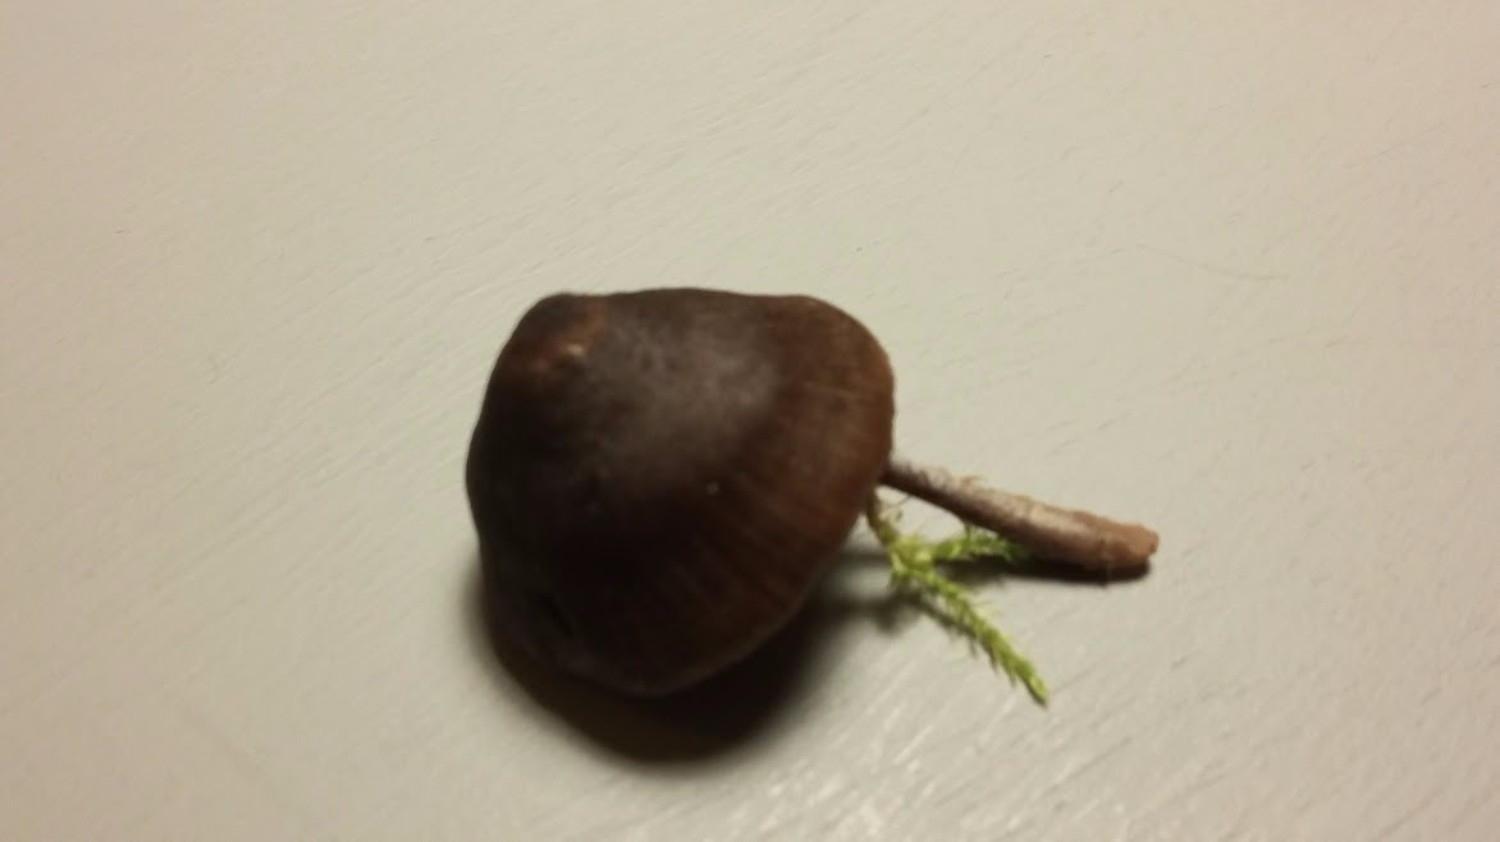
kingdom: Fungi
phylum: Basidiomycota
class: Agaricomycetes
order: Agaricales
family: Entolomataceae
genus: Entoloma
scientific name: Entoloma
